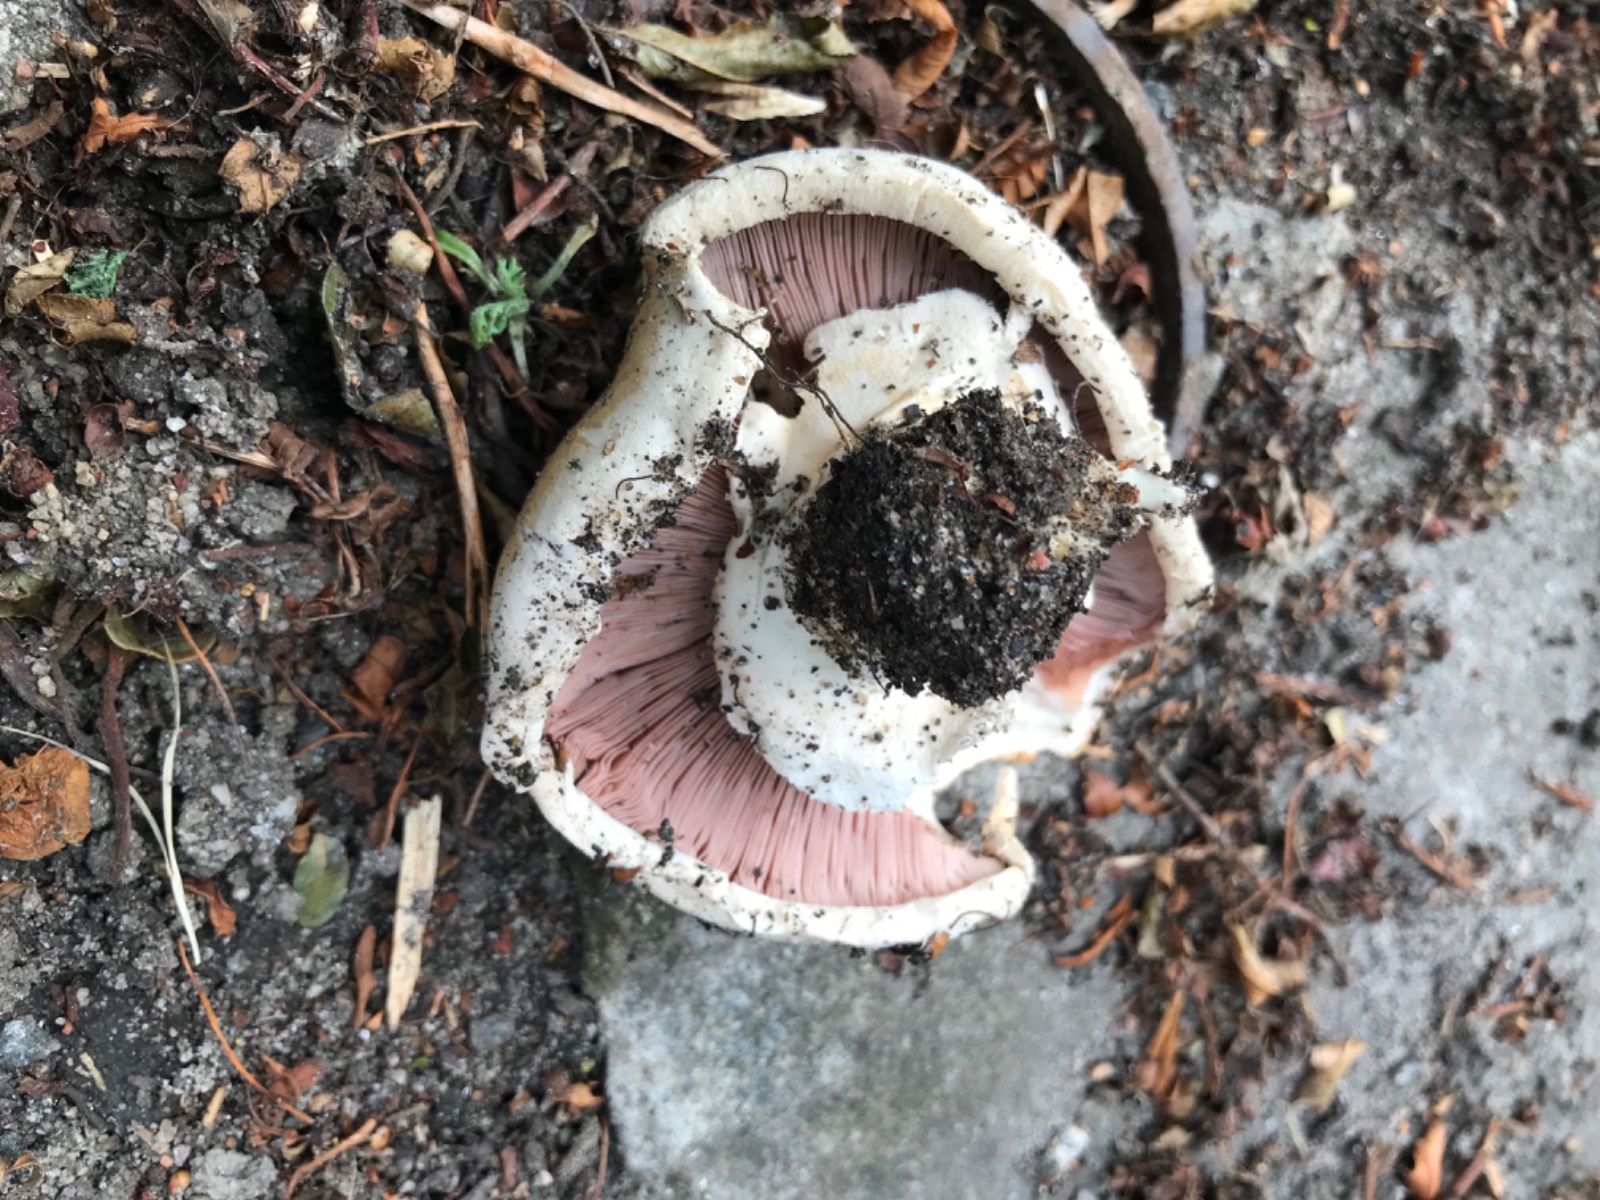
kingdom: Fungi
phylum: Basidiomycota
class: Agaricomycetes
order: Agaricales
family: Agaricaceae
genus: Agaricus
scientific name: Agaricus
